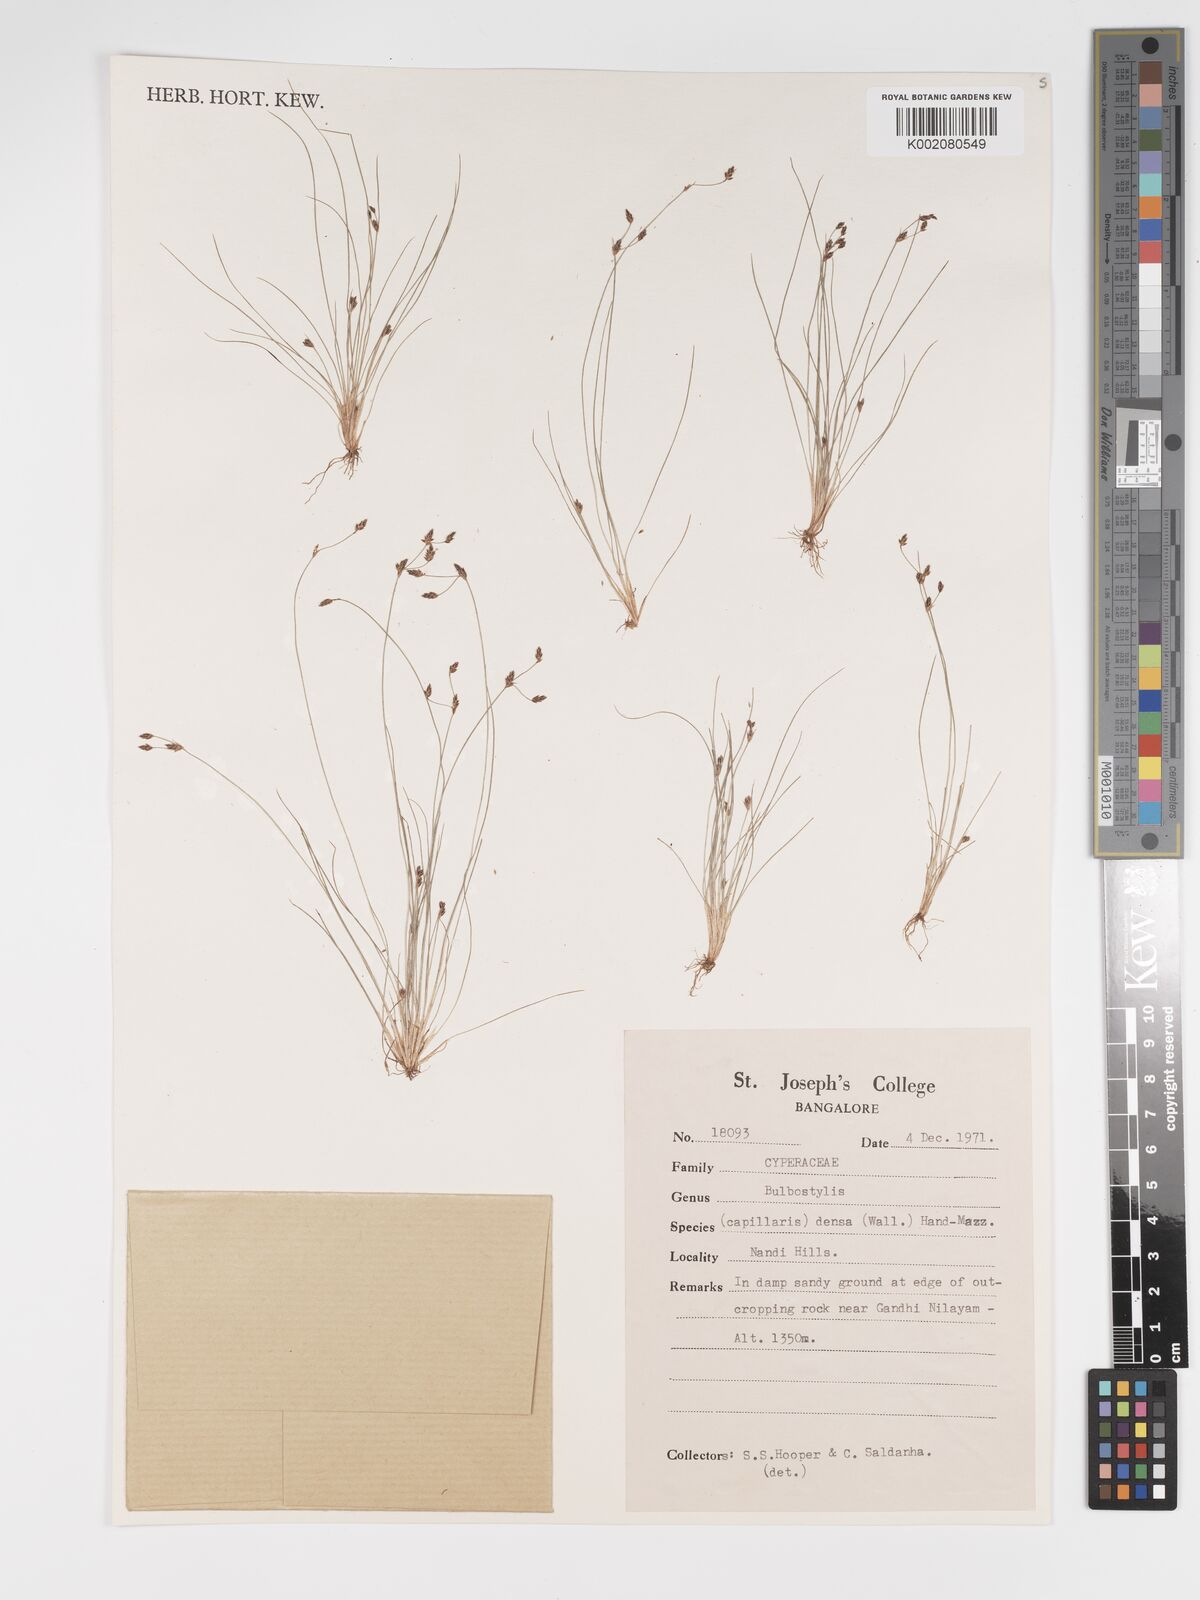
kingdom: Plantae
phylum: Tracheophyta
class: Liliopsida
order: Poales
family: Cyperaceae
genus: Bulbostylis
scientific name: Bulbostylis densa
